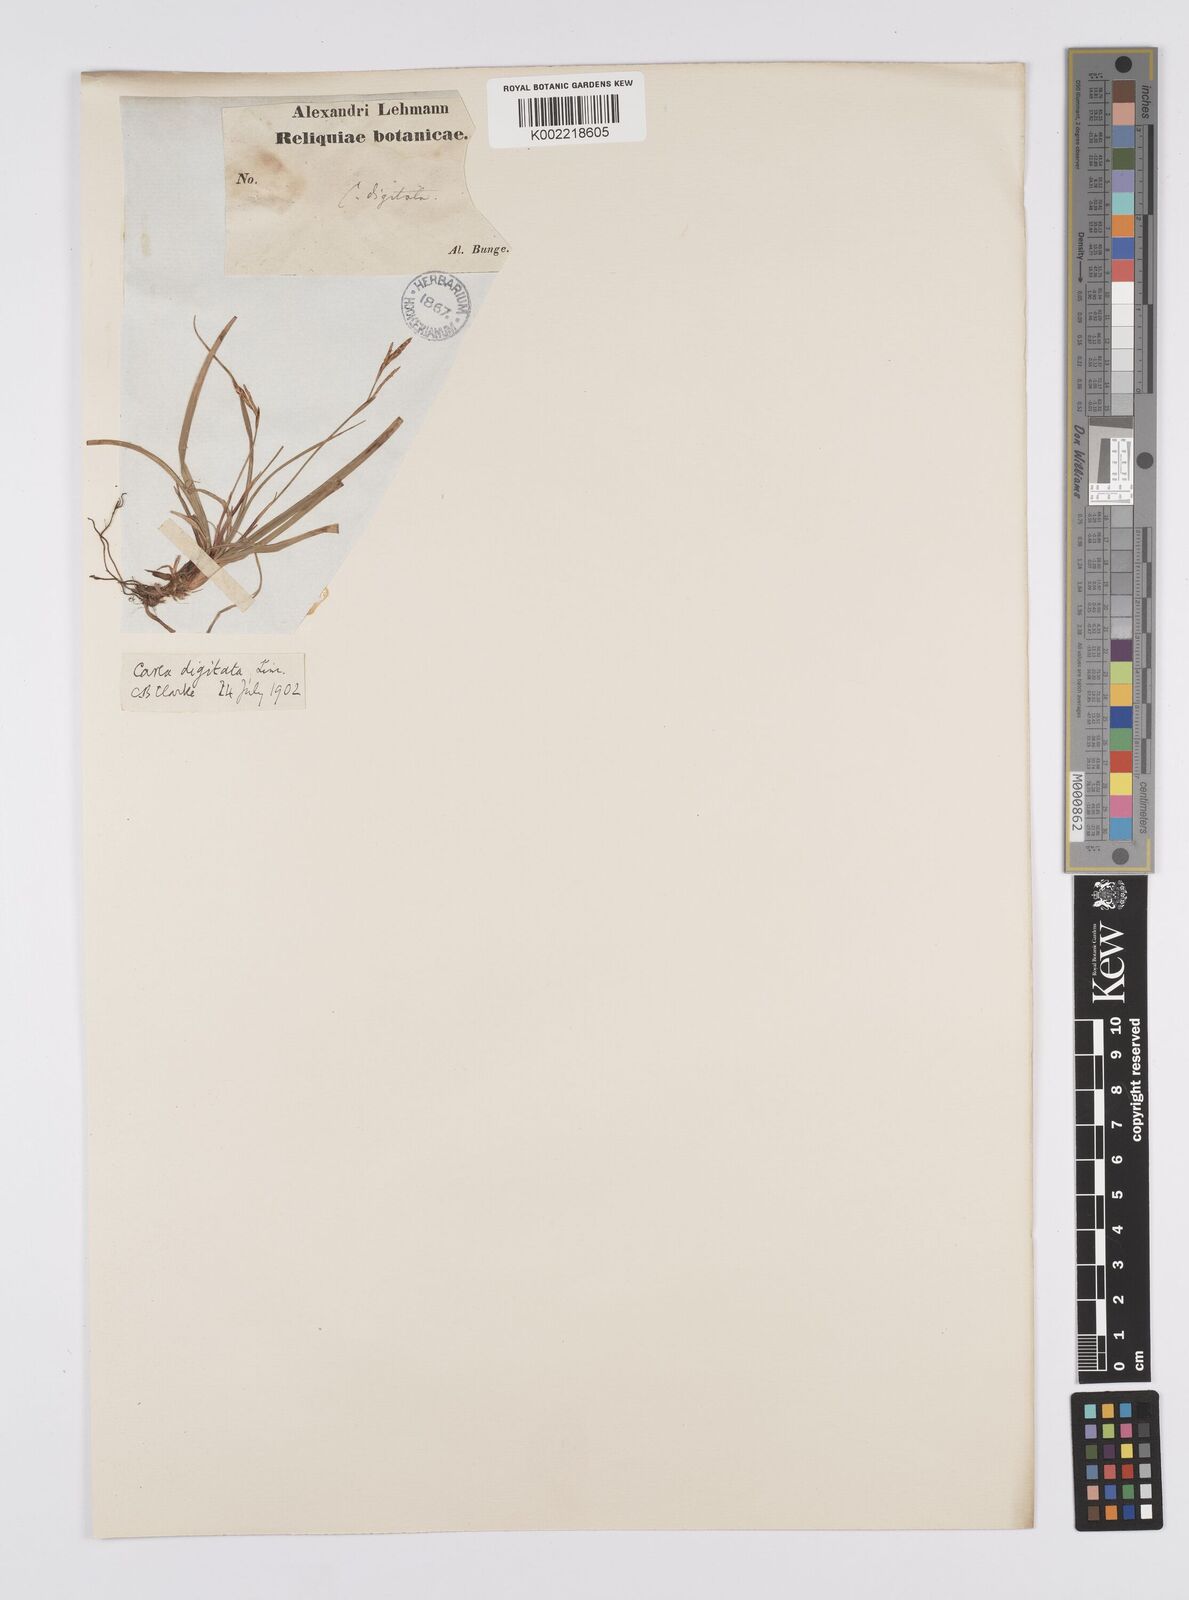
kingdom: Plantae
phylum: Tracheophyta
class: Liliopsida
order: Poales
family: Cyperaceae
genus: Carex
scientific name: Carex digitata
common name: Fingered sedge
